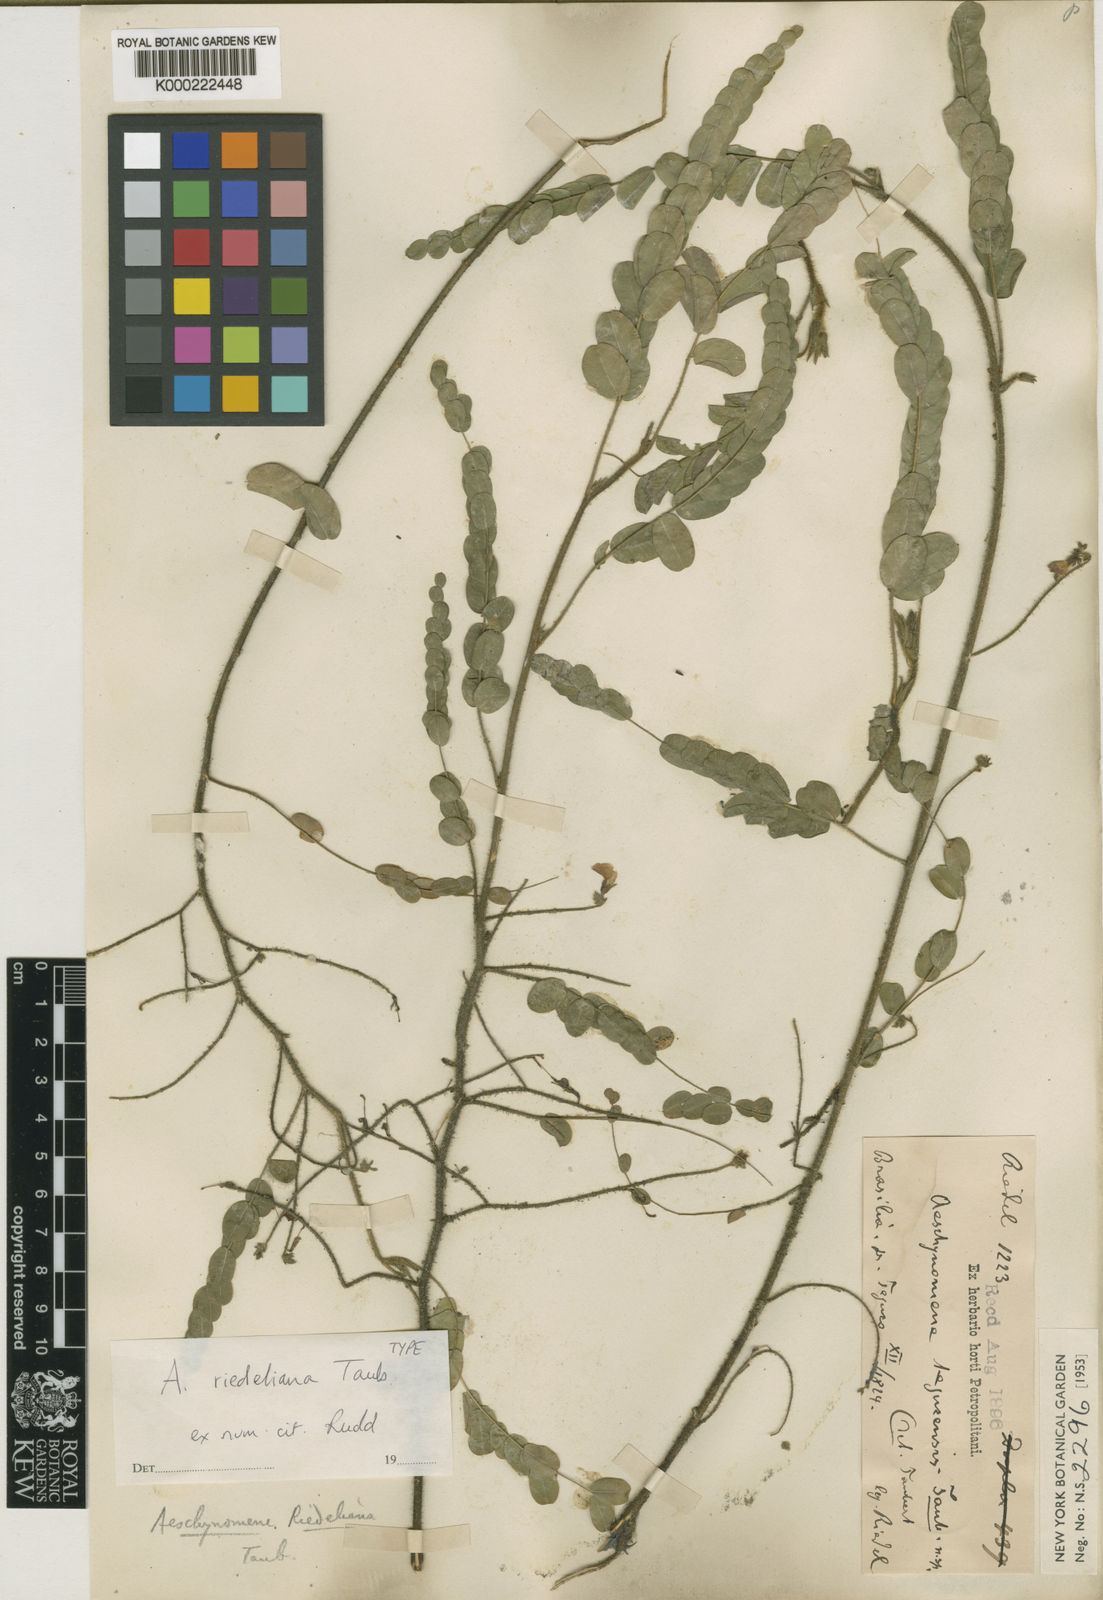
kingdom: Plantae
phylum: Tracheophyta
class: Magnoliopsida
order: Fabales
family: Fabaceae
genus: Ctenodon
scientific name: Ctenodon riedelianus
